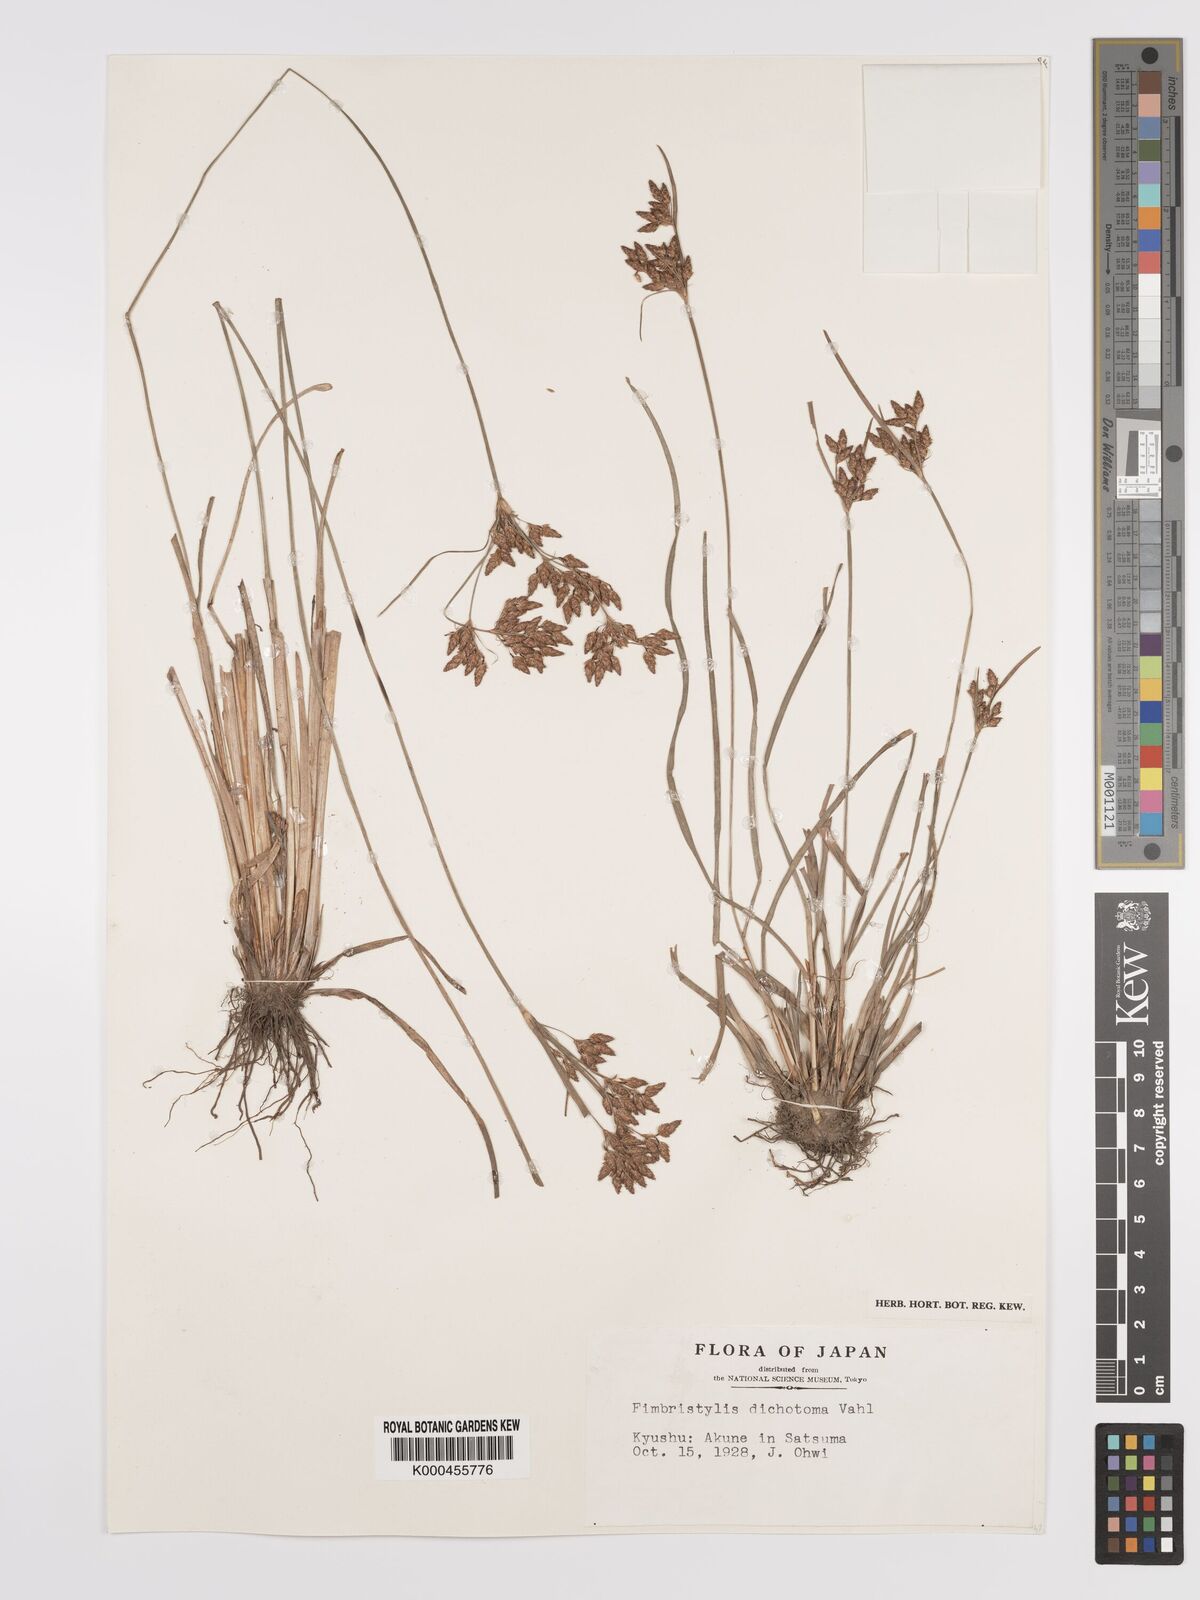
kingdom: Plantae
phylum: Tracheophyta
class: Liliopsida
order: Poales
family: Cyperaceae
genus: Fimbristylis
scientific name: Fimbristylis dichotoma
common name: Forked fimbry
